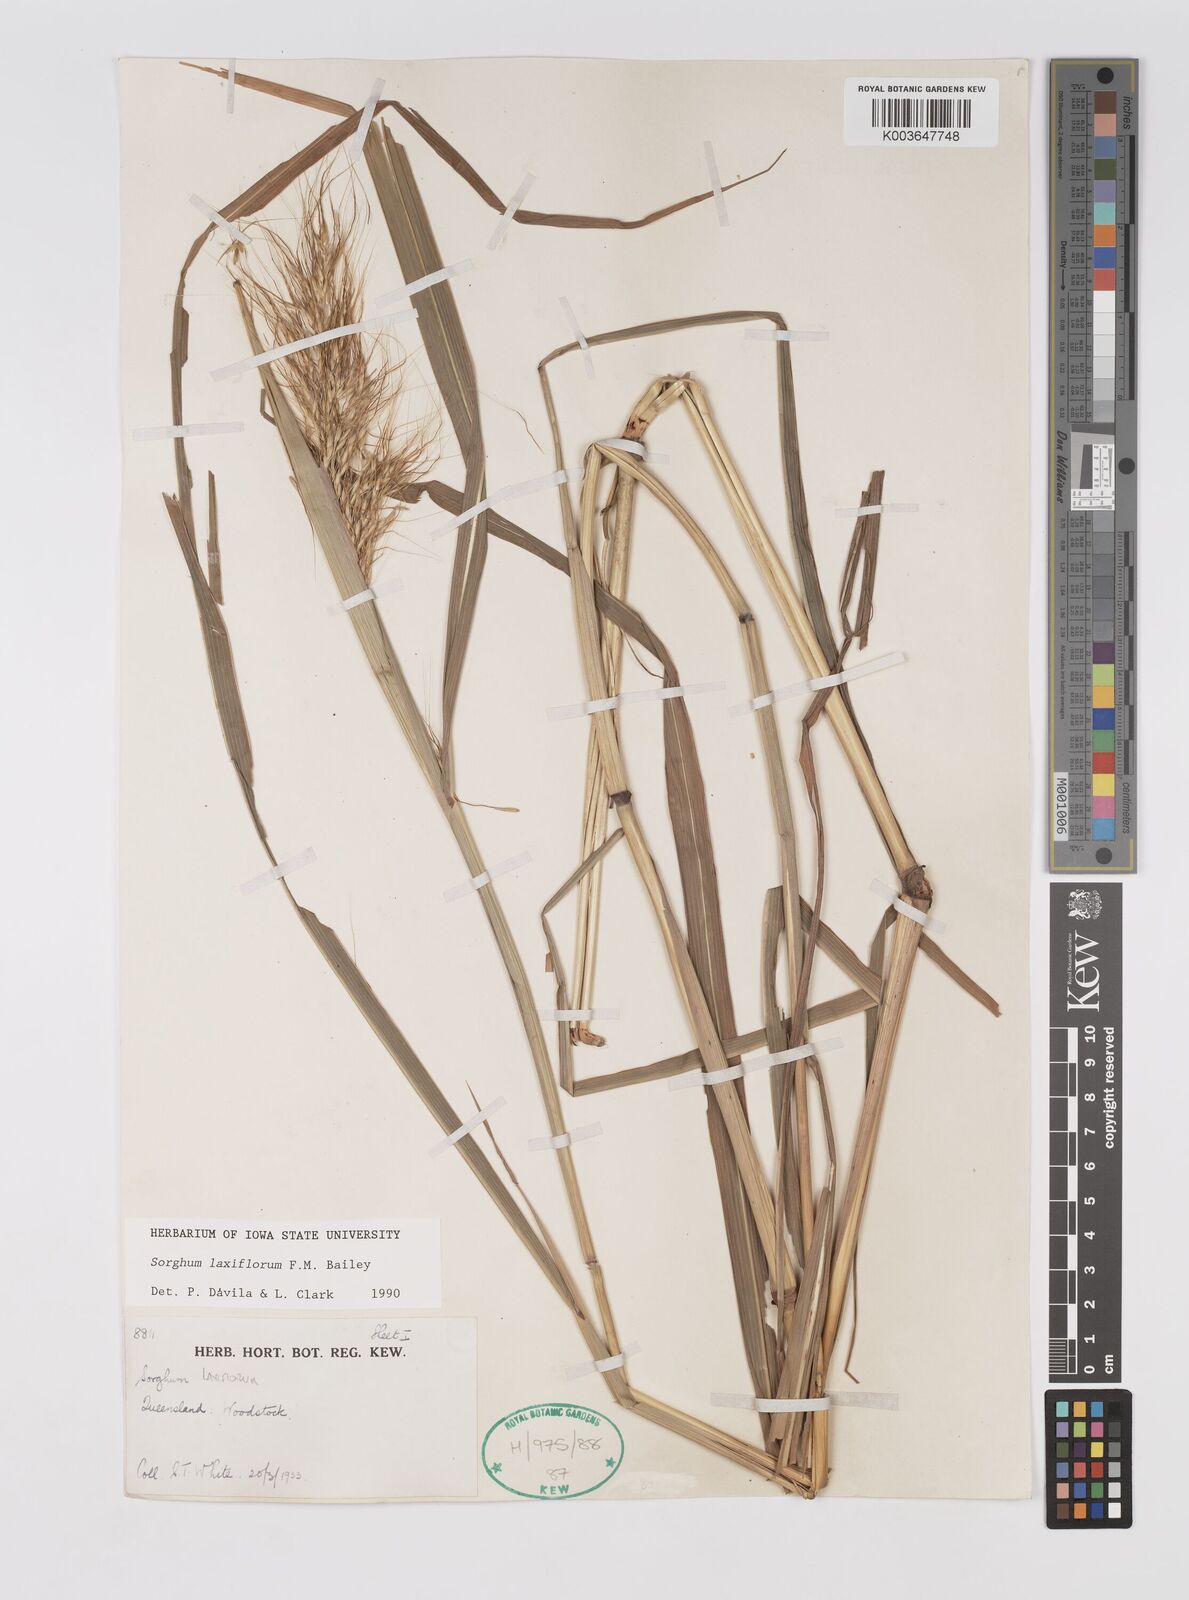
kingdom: Plantae
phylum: Tracheophyta
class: Liliopsida
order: Poales
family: Poaceae
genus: Sorghum
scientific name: Sorghum laxiflorum
